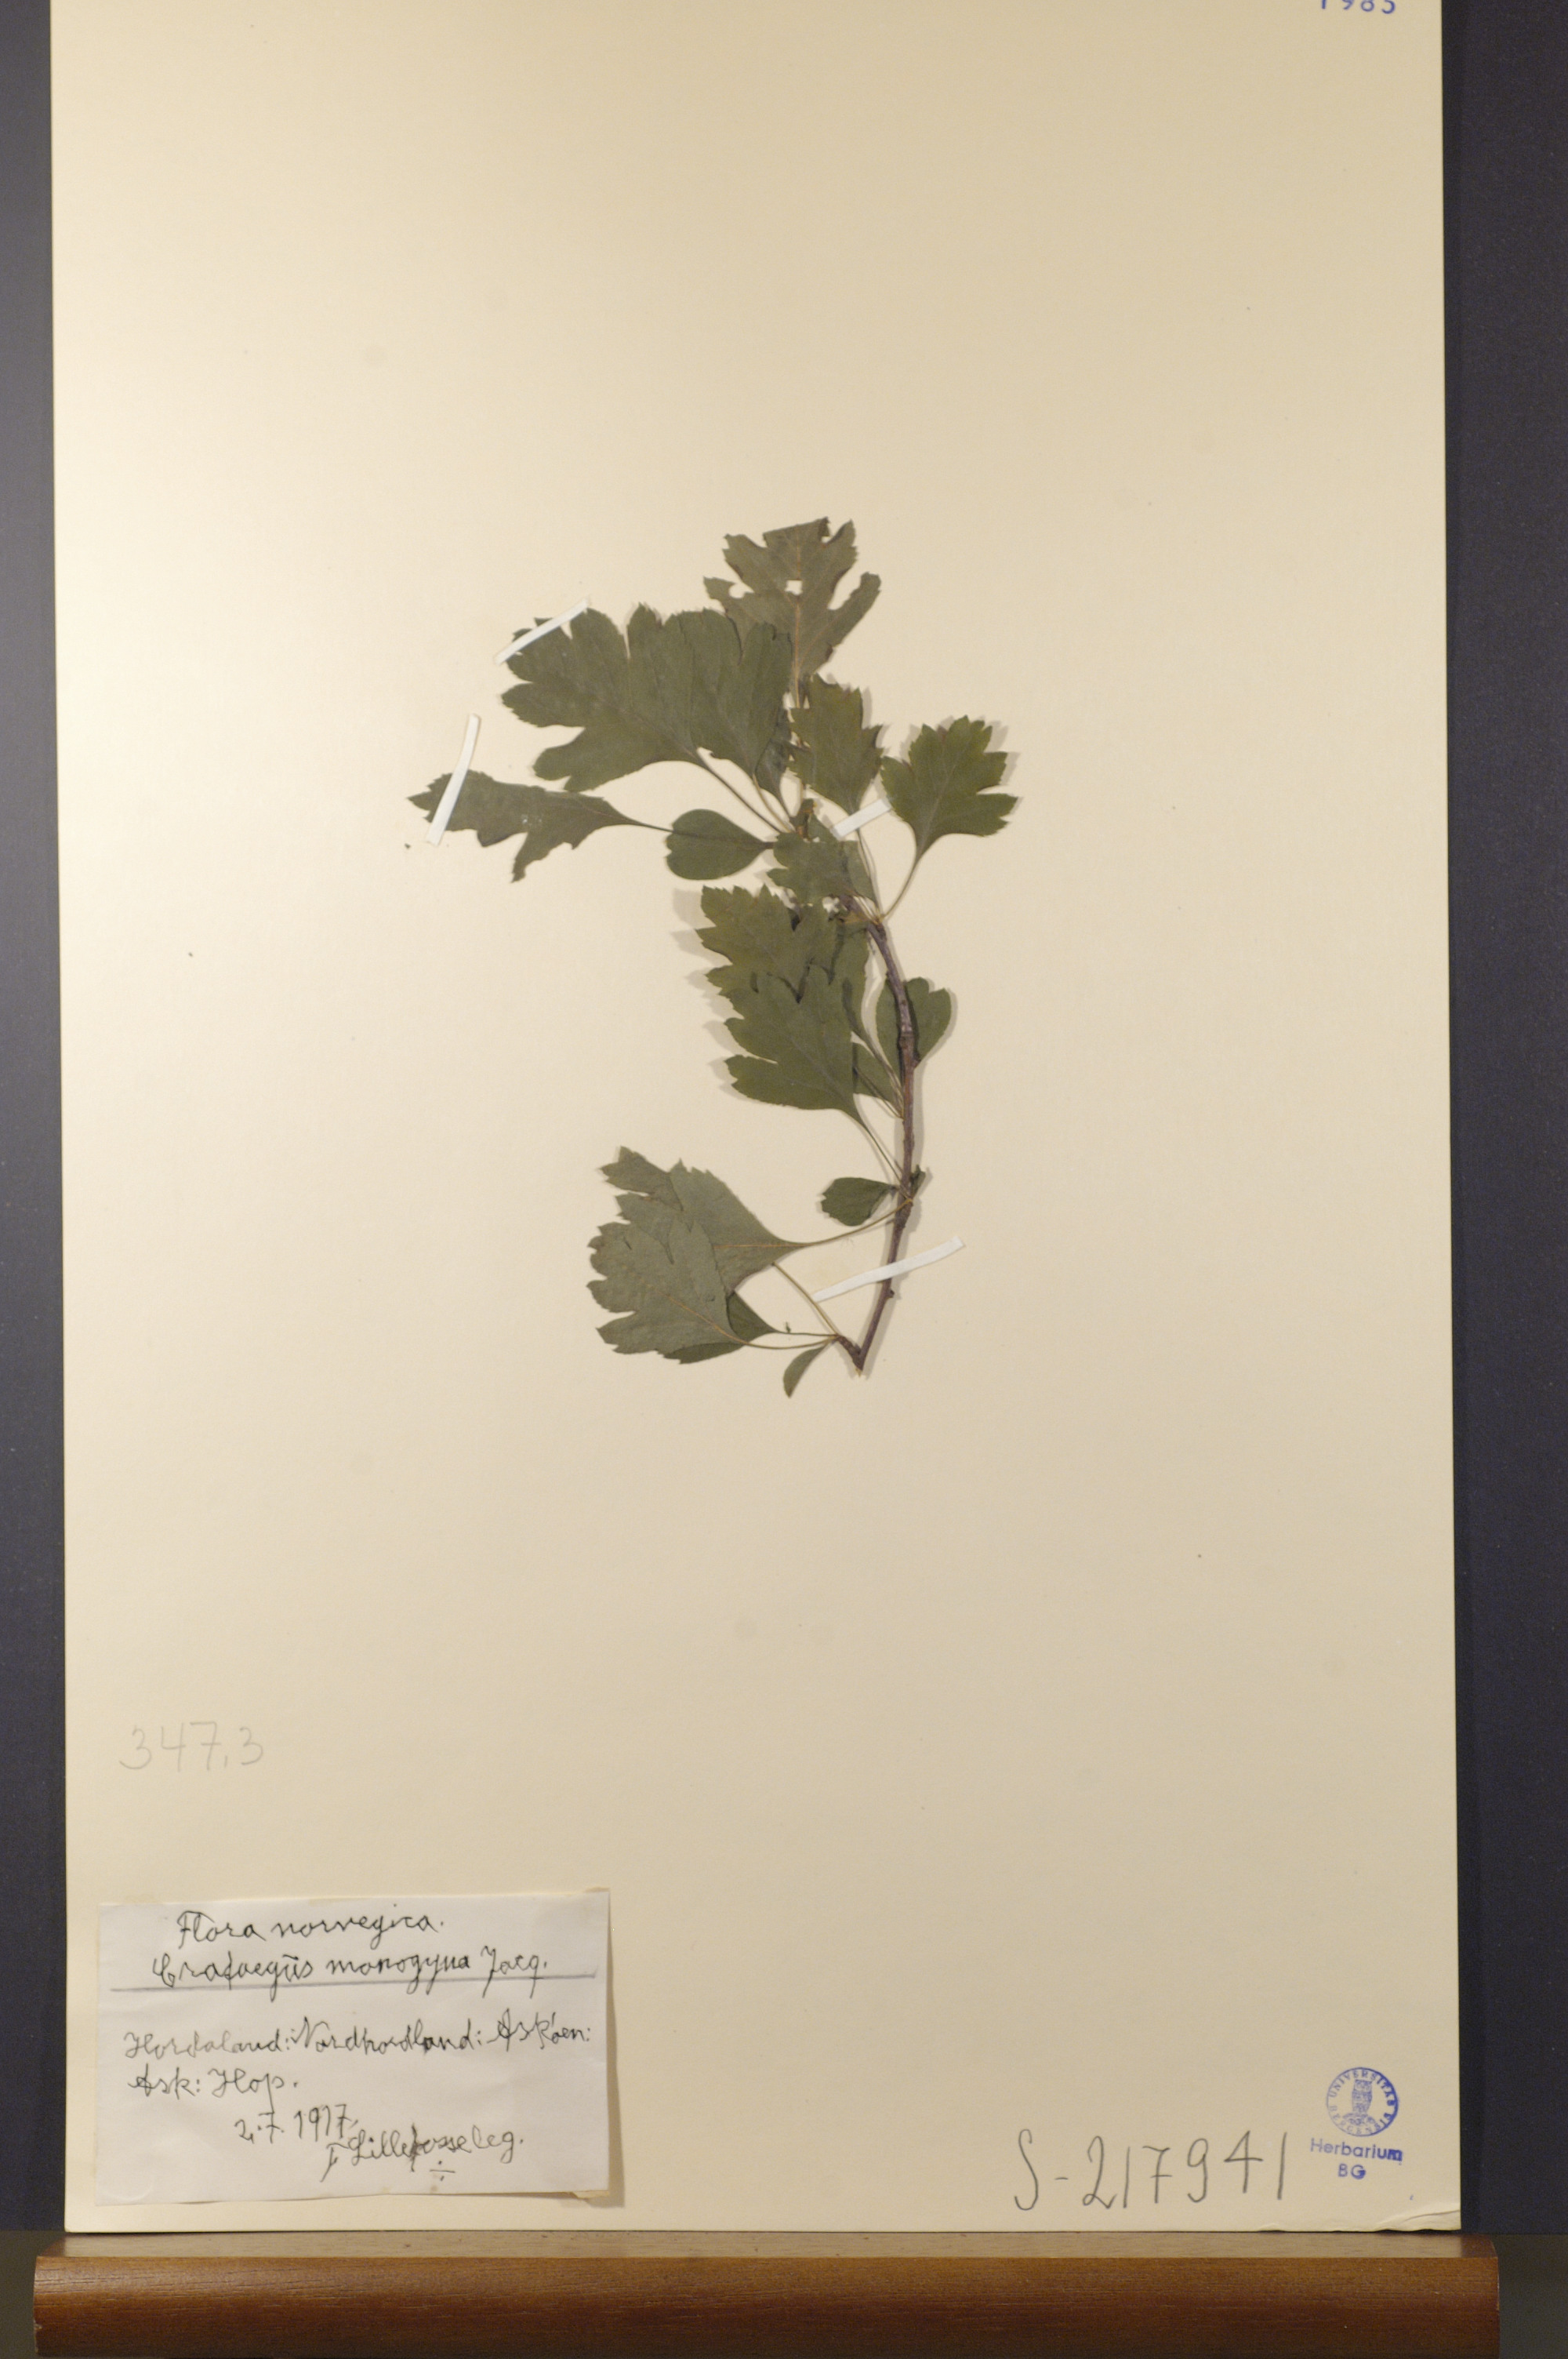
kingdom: Plantae
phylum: Tracheophyta
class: Magnoliopsida
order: Rosales
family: Rosaceae
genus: Crataegus
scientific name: Crataegus monogyna
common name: Hawthorn
